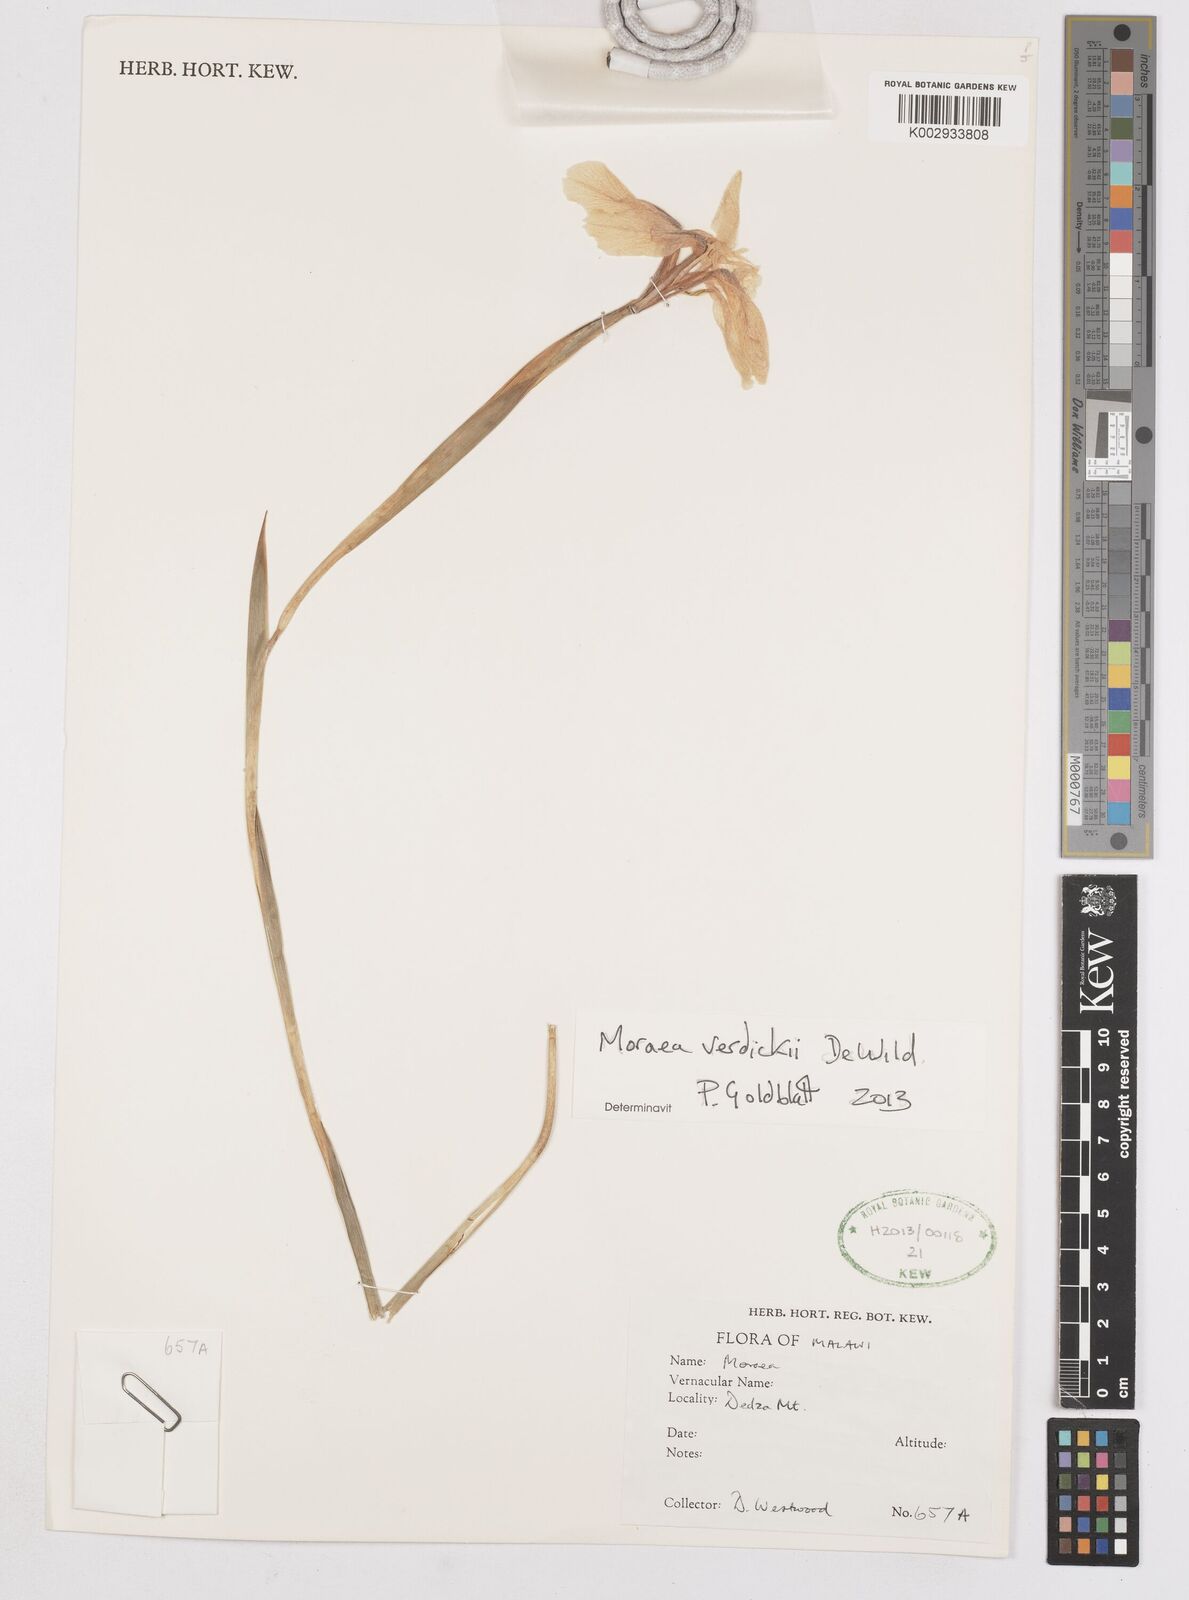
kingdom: Plantae
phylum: Tracheophyta
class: Liliopsida
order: Asparagales
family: Iridaceae
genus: Moraea
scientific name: Moraea verdickii
